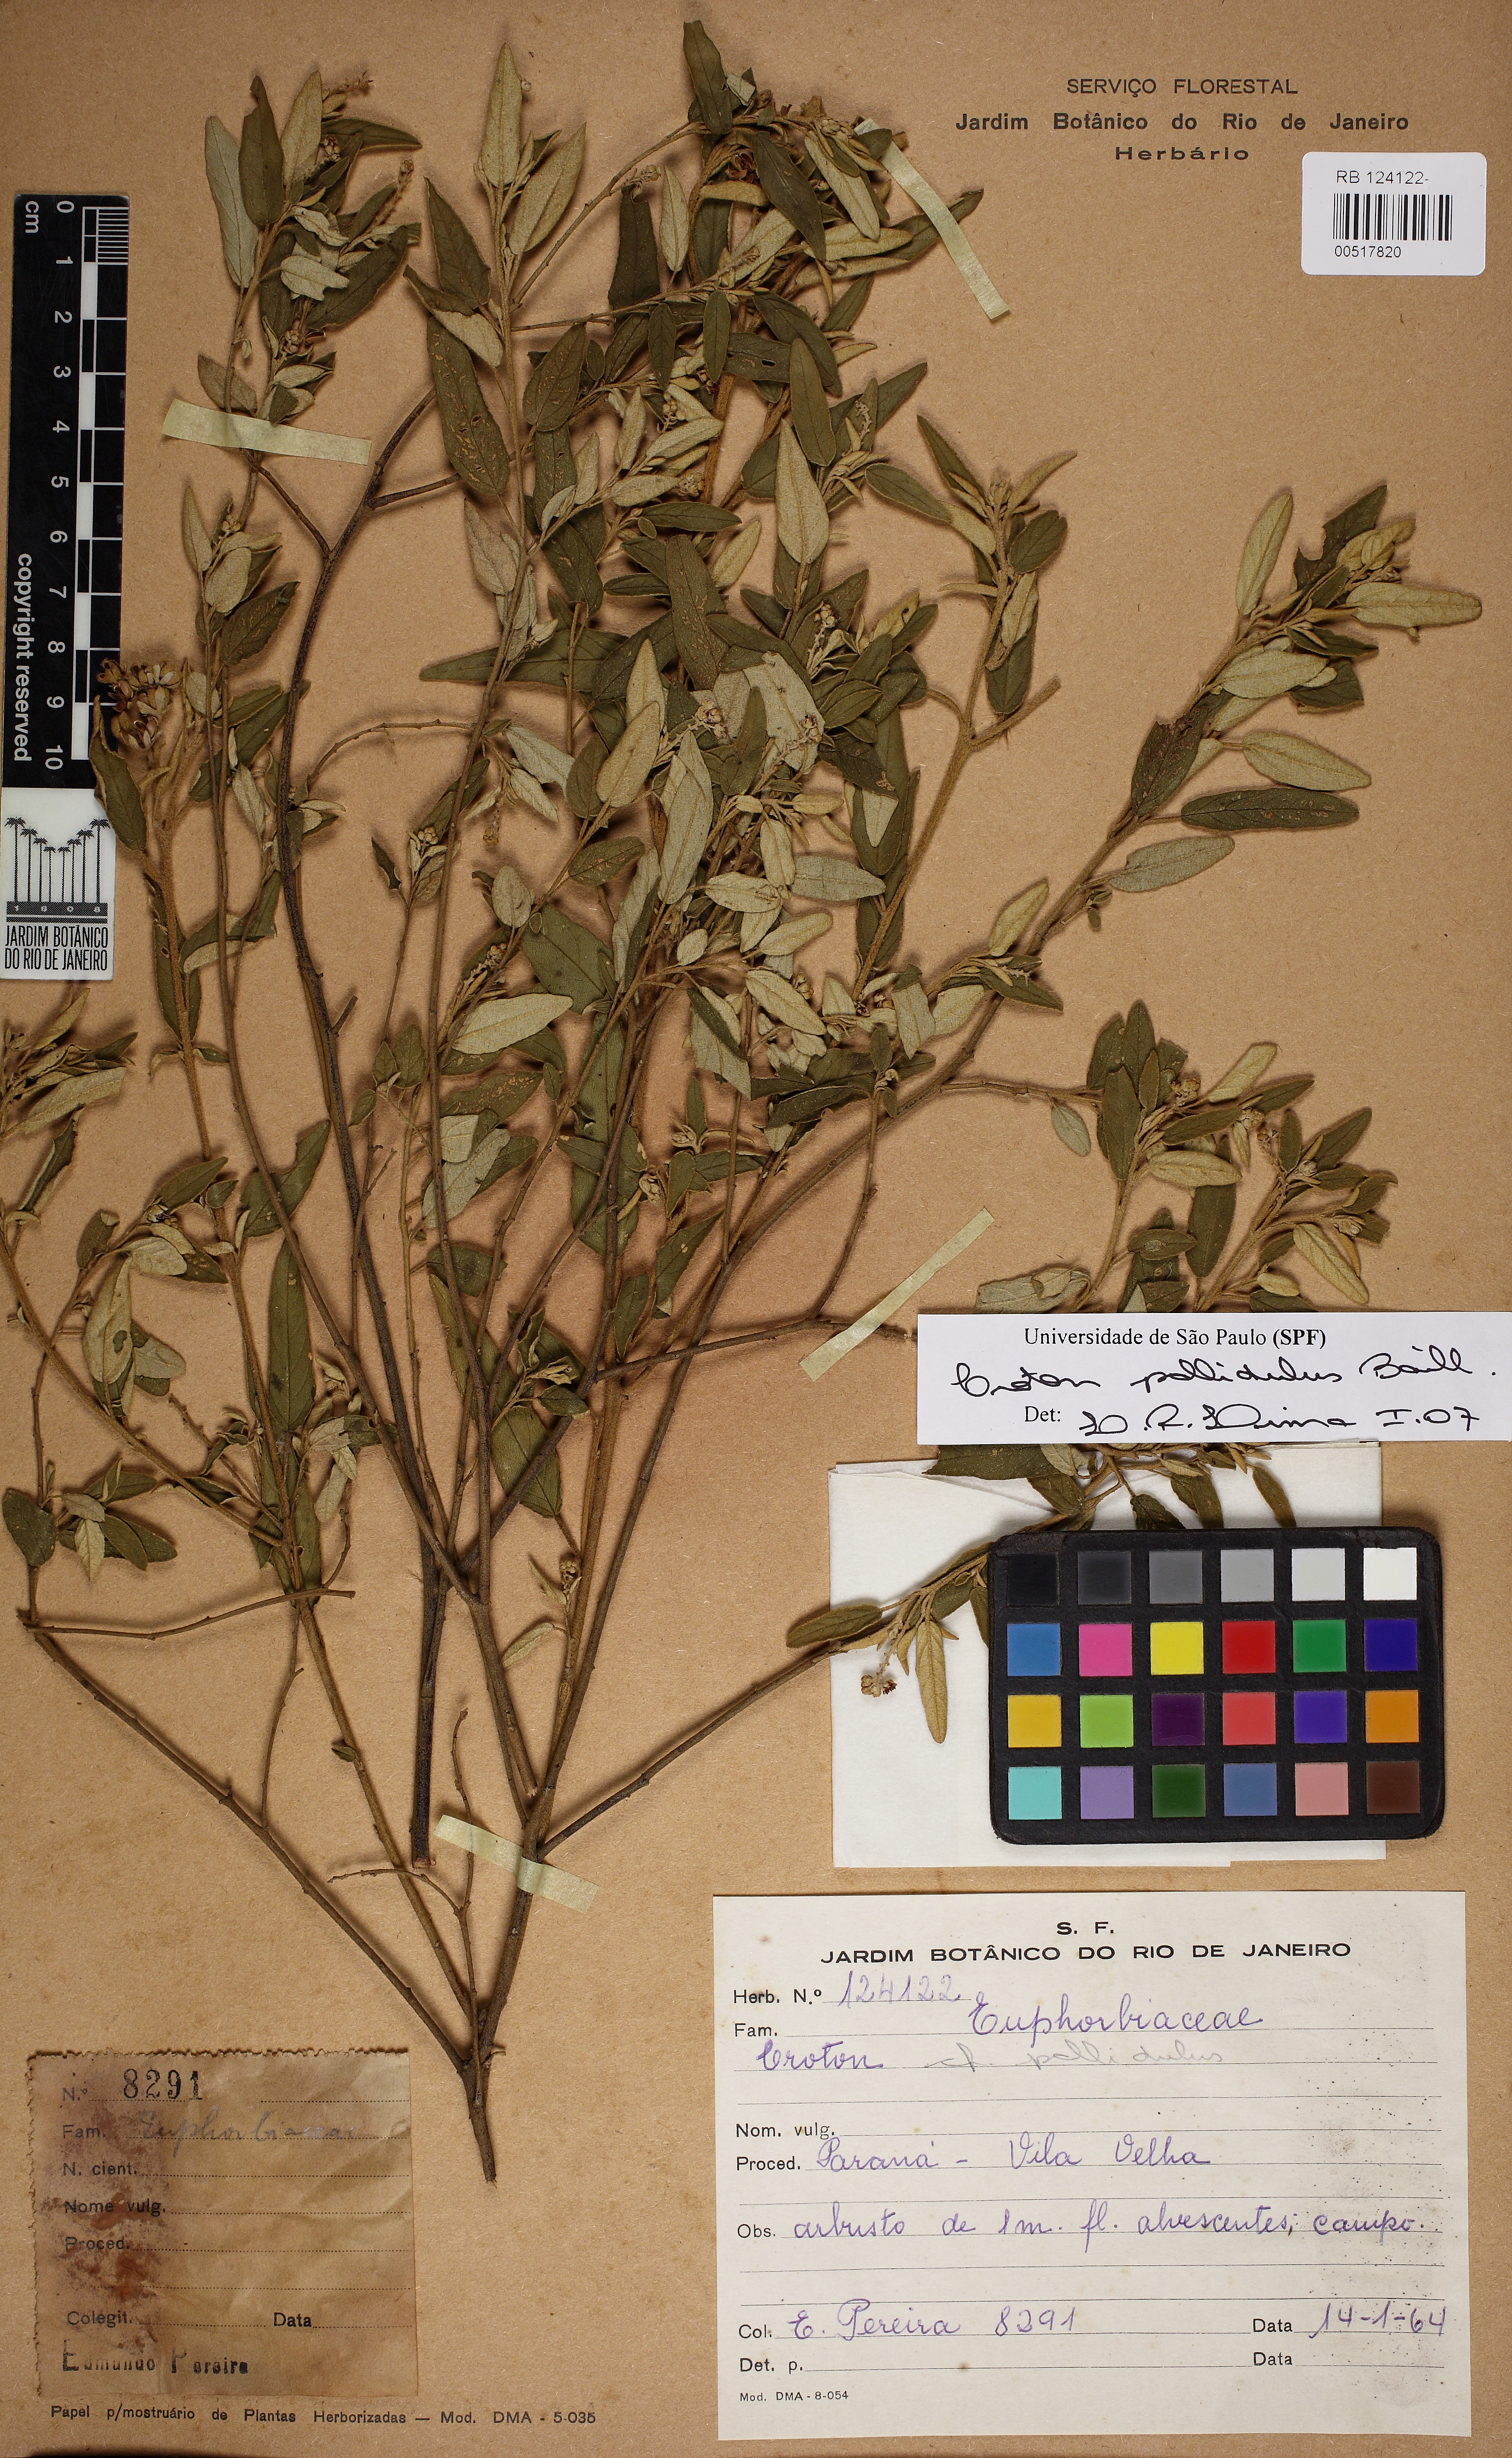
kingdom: Plantae
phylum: Tracheophyta
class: Magnoliopsida
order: Malpighiales
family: Euphorbiaceae
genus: Croton
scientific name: Croton ceanothifolius
